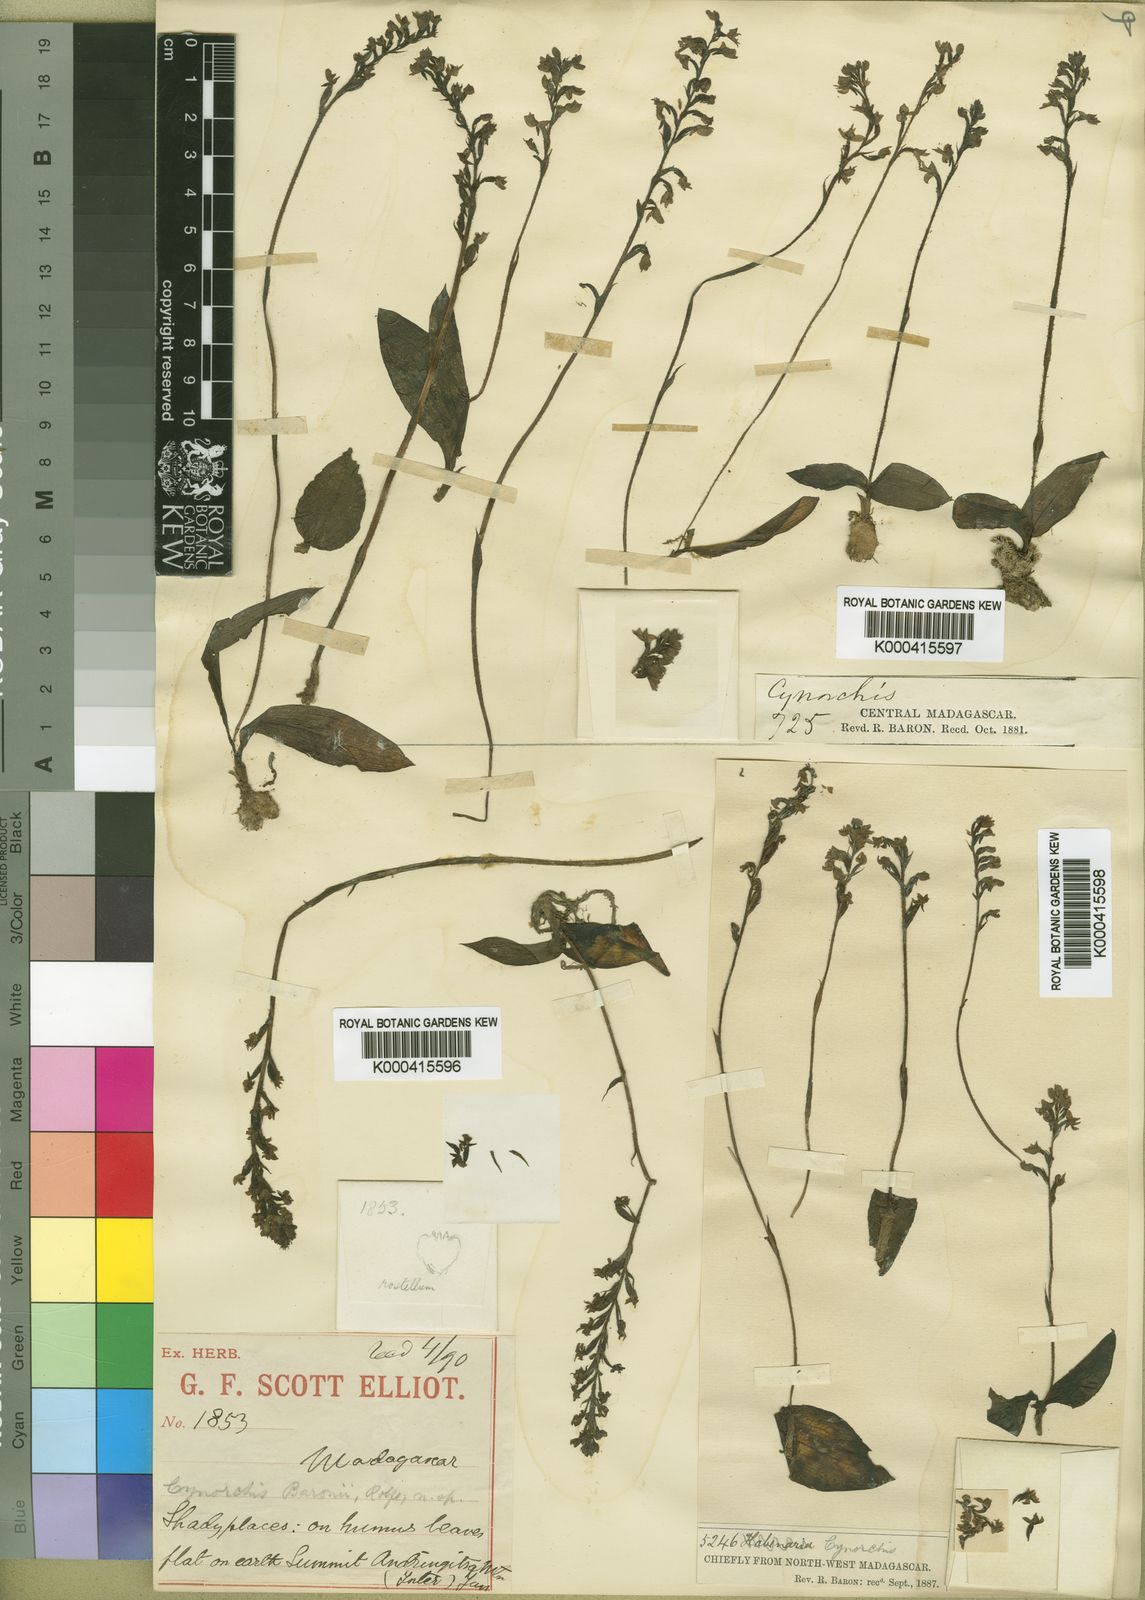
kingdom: Plantae
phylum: Tracheophyta
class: Liliopsida
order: Asparagales
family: Orchidaceae
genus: Cynorkis
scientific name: Cynorkis baronii
